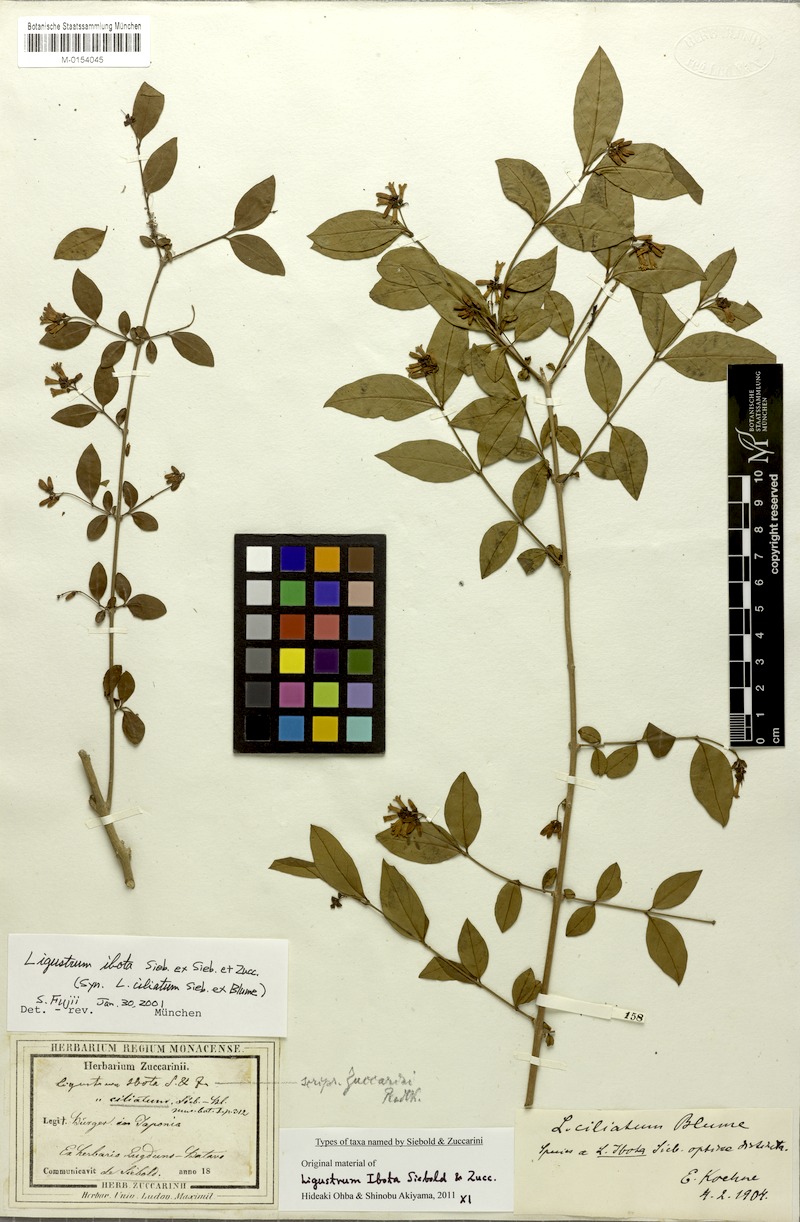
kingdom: Plantae
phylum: Tracheophyta
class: Magnoliopsida
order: Lamiales
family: Oleaceae
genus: Ligustrum
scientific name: Ligustrum ibota
